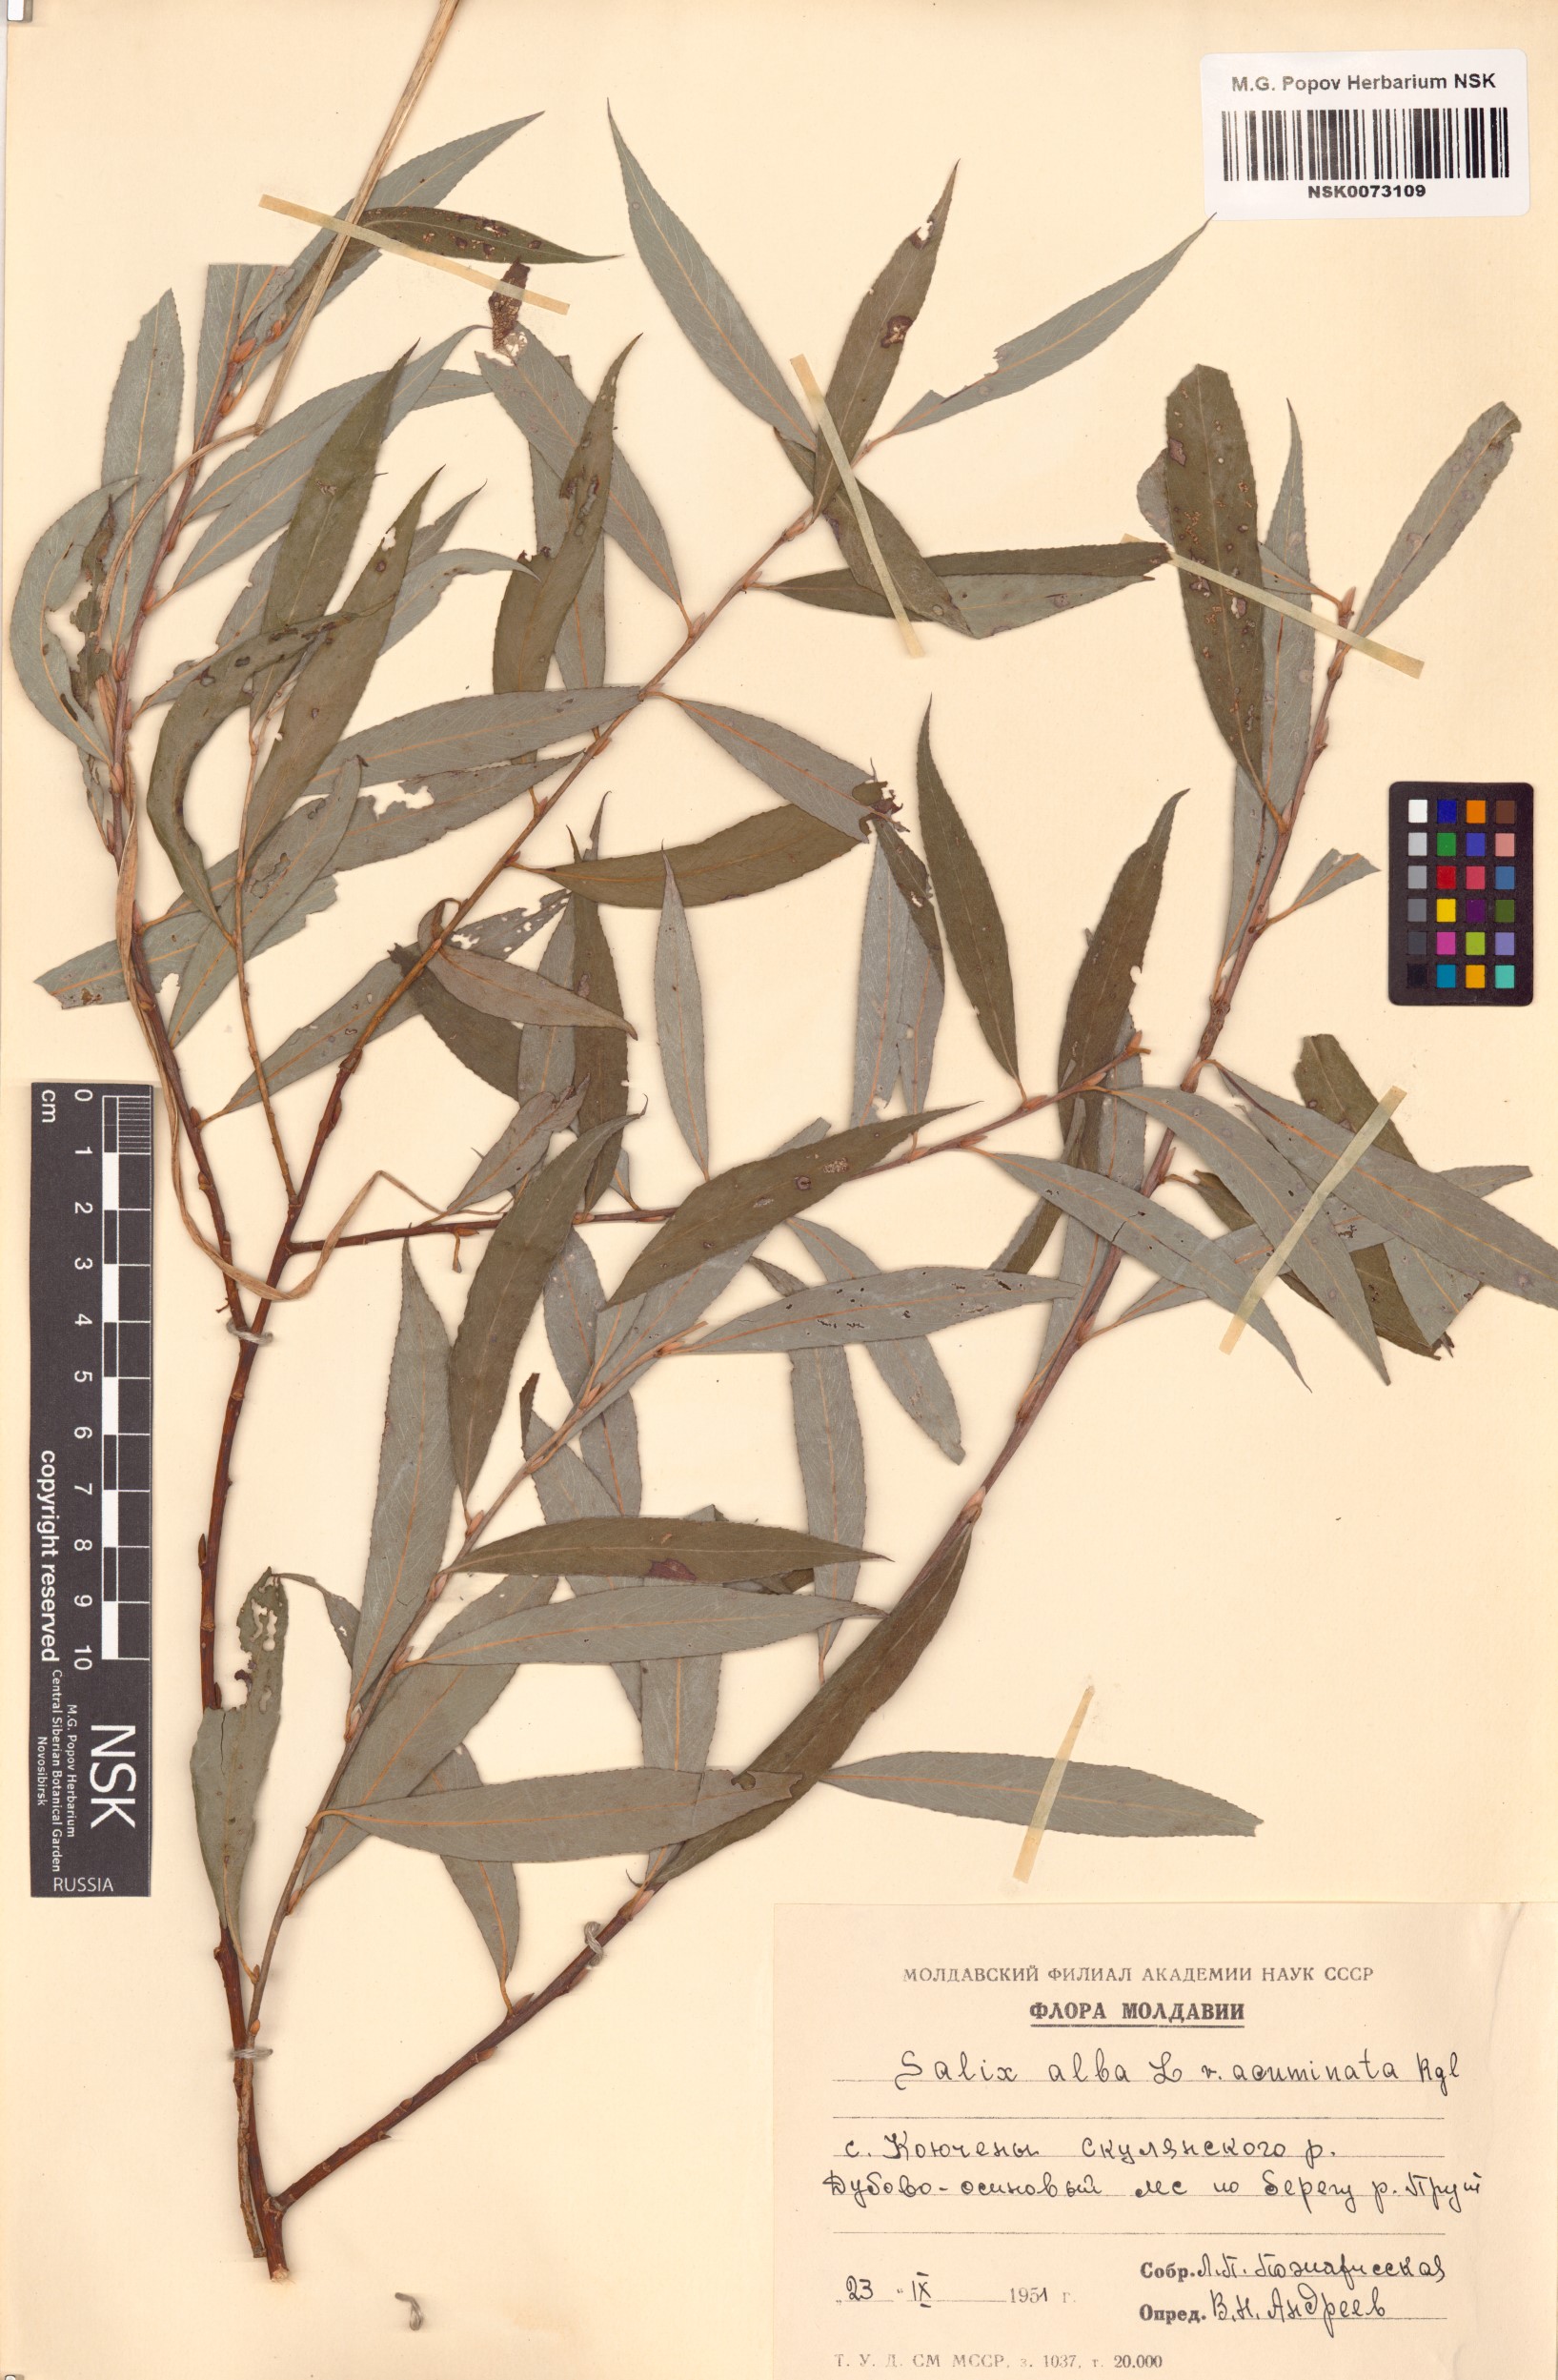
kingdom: Plantae
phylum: Tracheophyta
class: Magnoliopsida
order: Malpighiales
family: Salicaceae
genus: Salix
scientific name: Salix alba
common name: White willow
